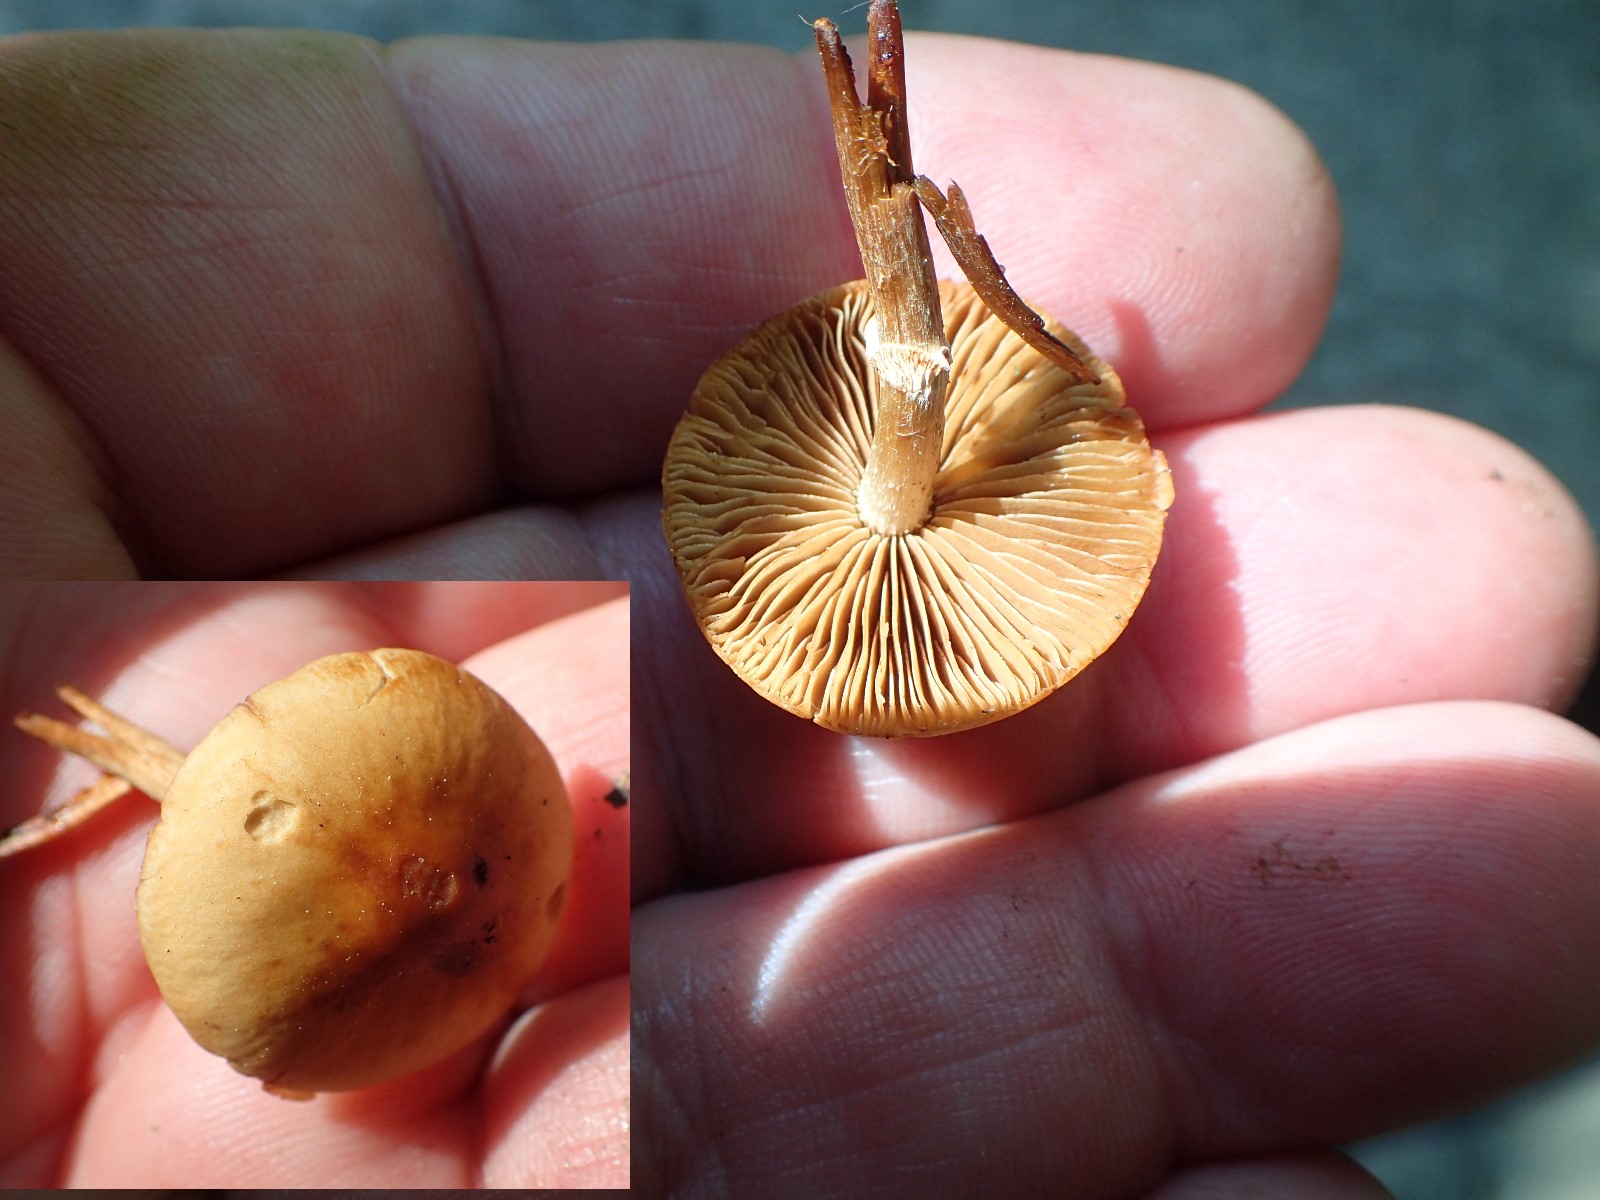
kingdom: Fungi
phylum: Basidiomycota
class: Agaricomycetes
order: Agaricales
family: Bolbitiaceae
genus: Conocybe
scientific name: Conocybe aporos
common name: tidlig dansehat
